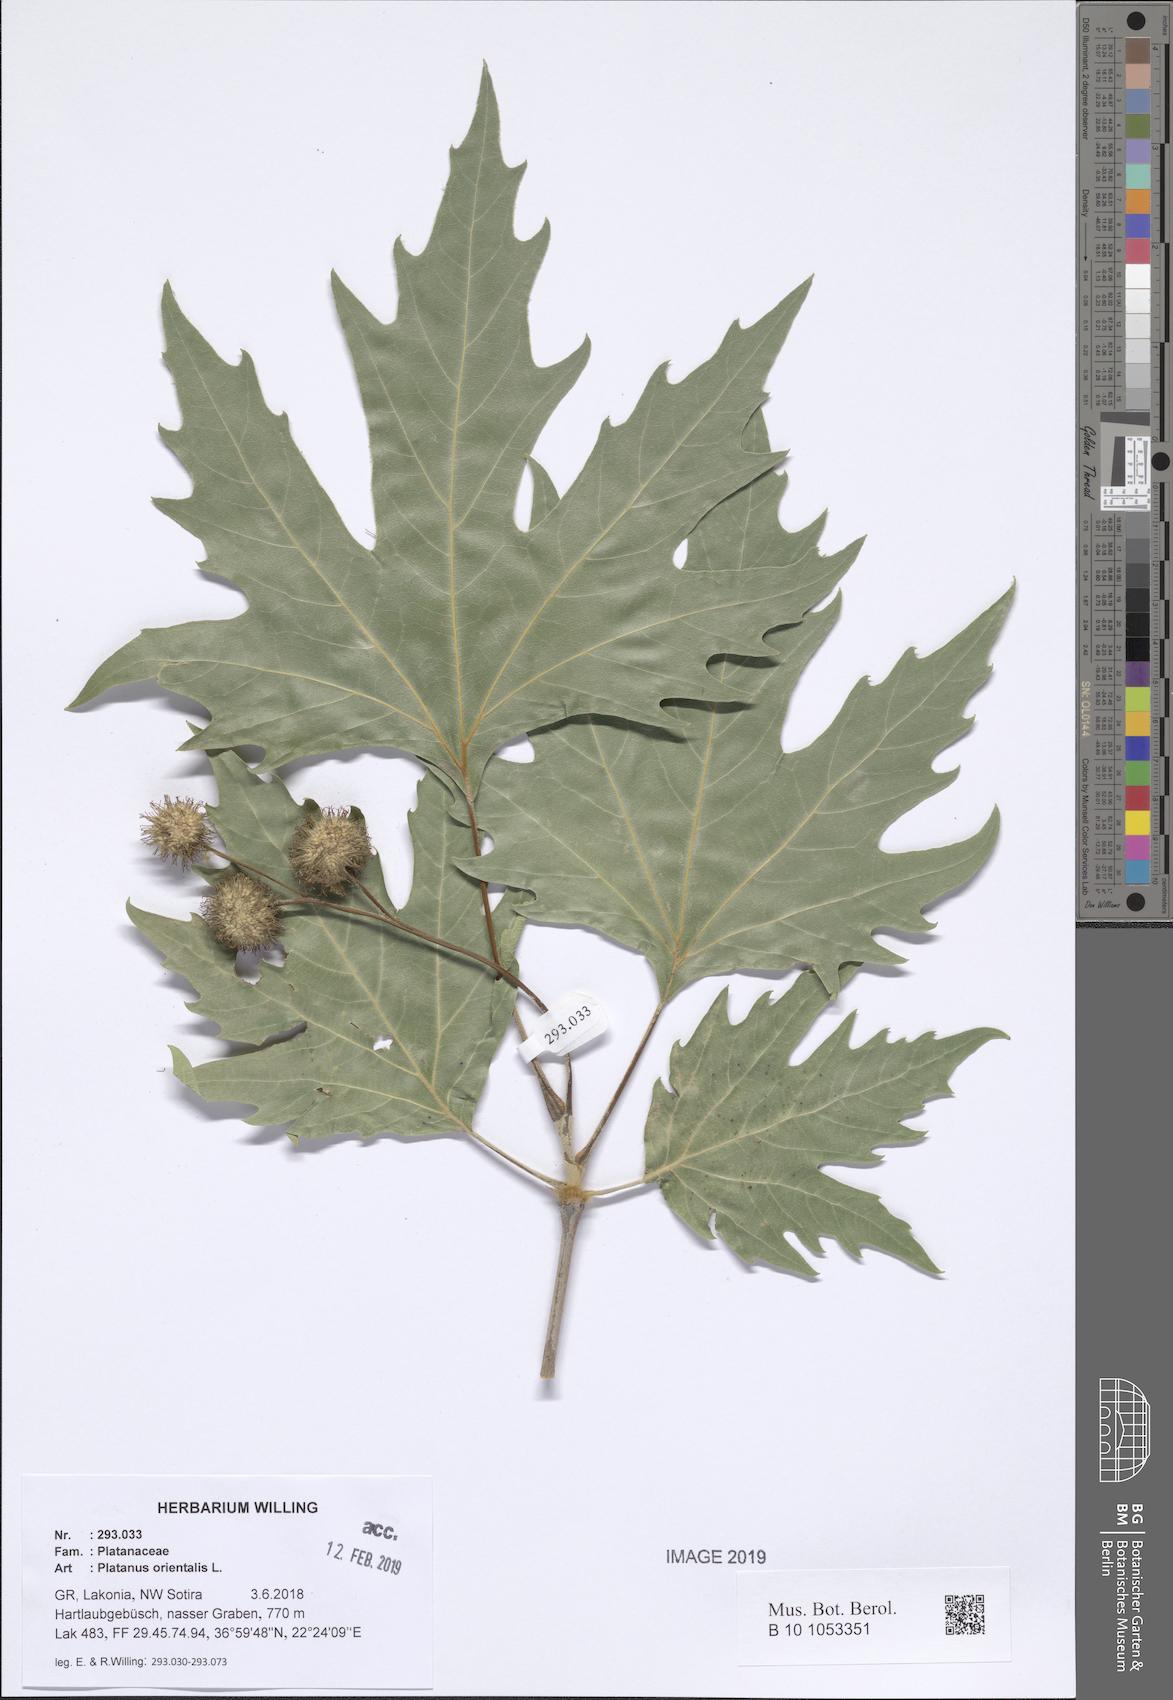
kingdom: Plantae
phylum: Tracheophyta
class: Magnoliopsida
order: Proteales
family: Platanaceae
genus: Platanus
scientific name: Platanus orientalis
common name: Oriental plane
